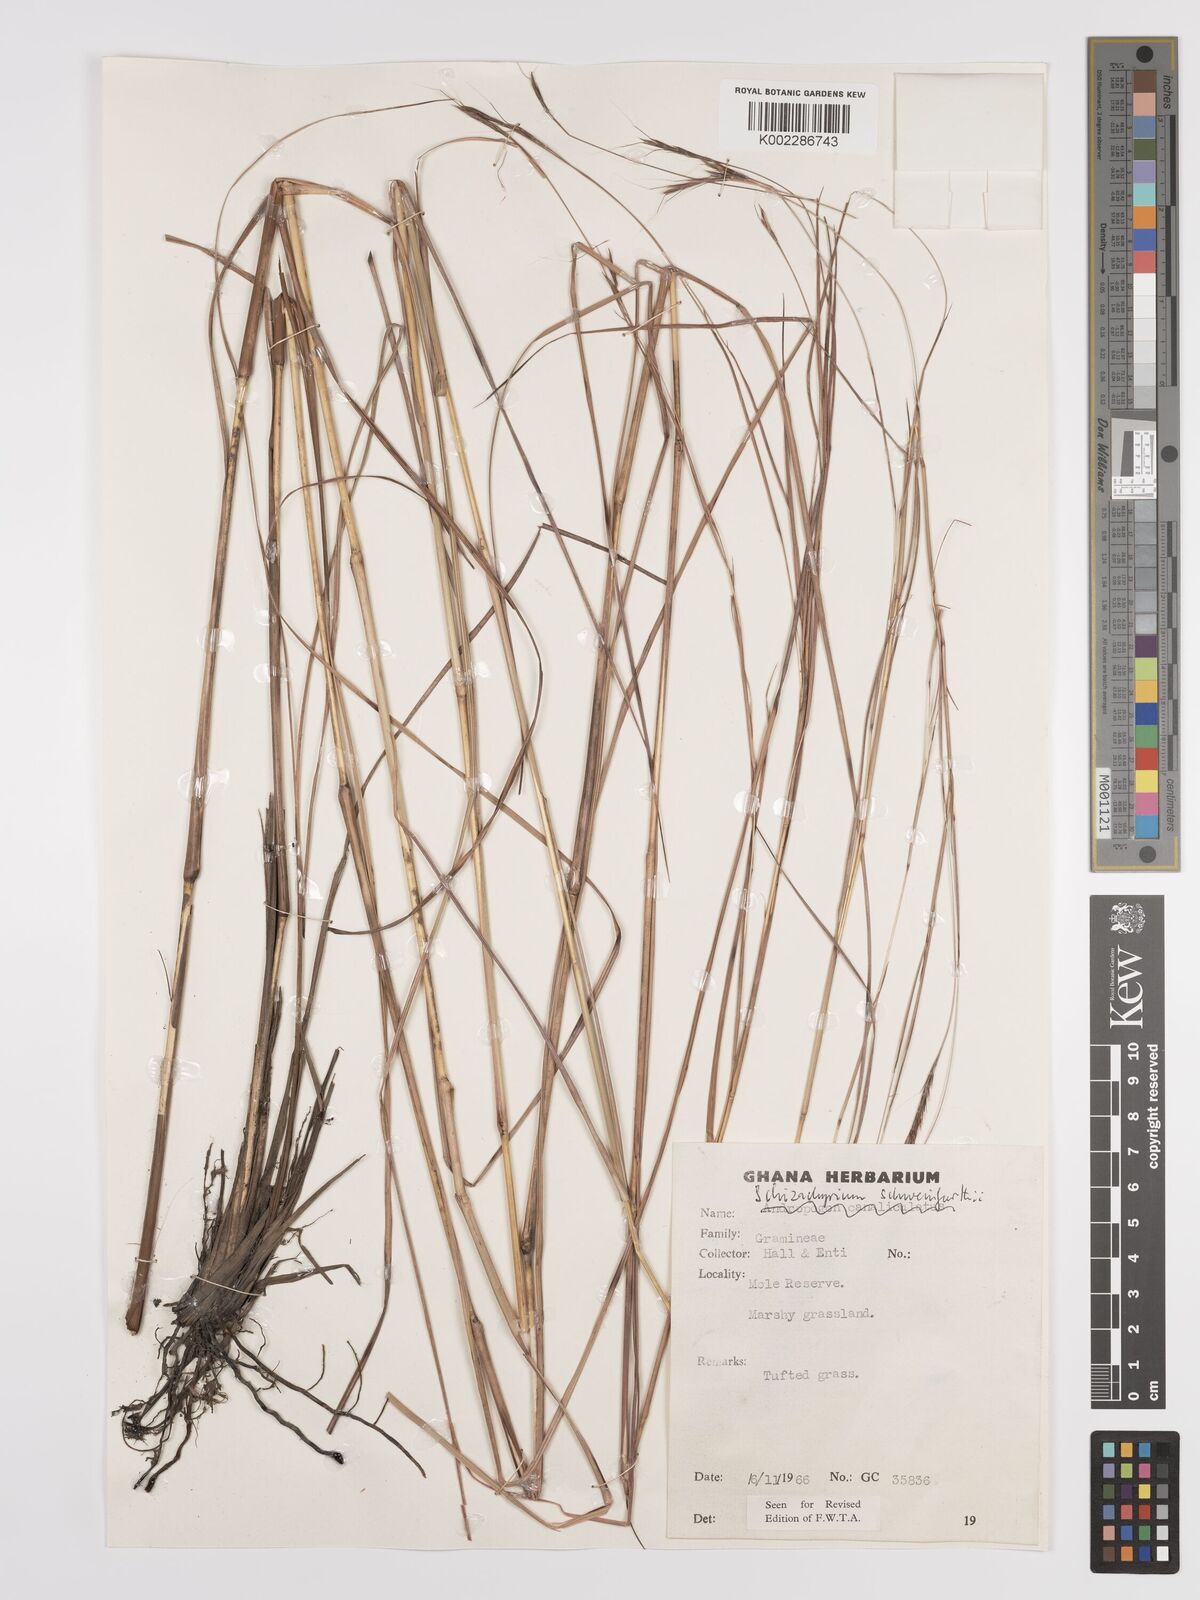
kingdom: Plantae
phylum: Tracheophyta
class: Liliopsida
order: Poales
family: Poaceae
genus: Andropogon
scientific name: Andropogon schweinfurthii
